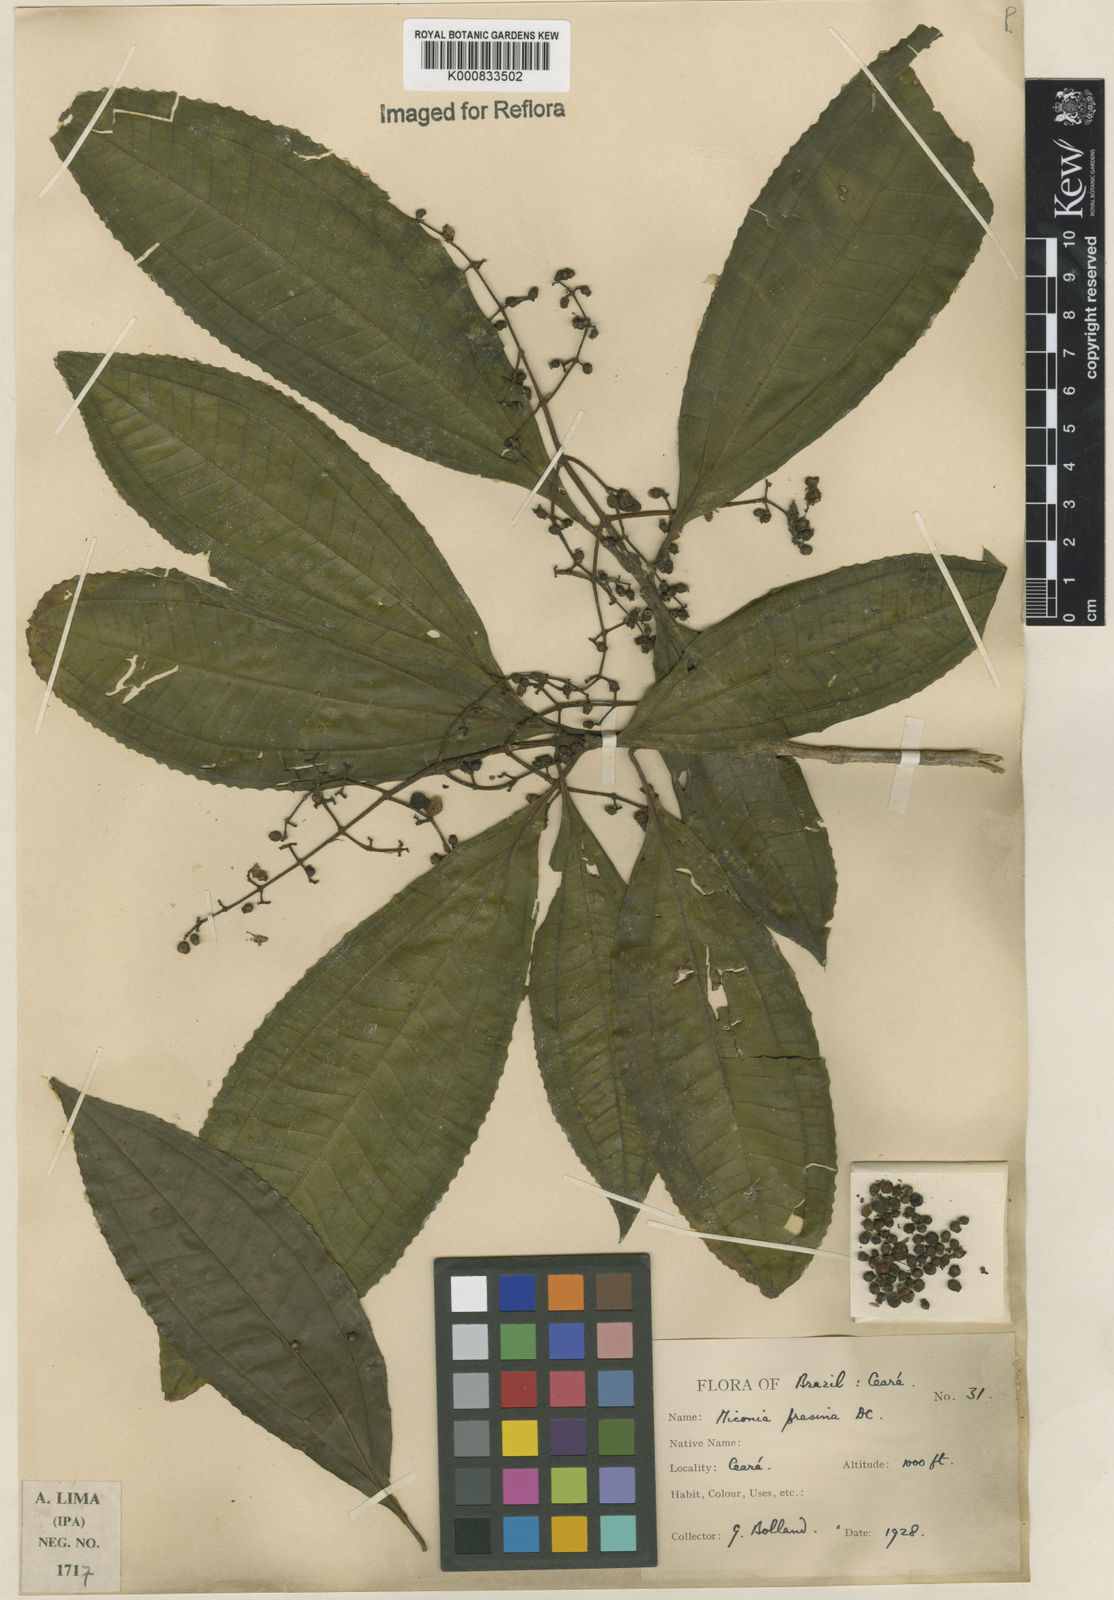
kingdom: Plantae
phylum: Tracheophyta
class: Magnoliopsida
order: Myrtales
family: Melastomataceae
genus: Miconia
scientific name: Miconia prasina
